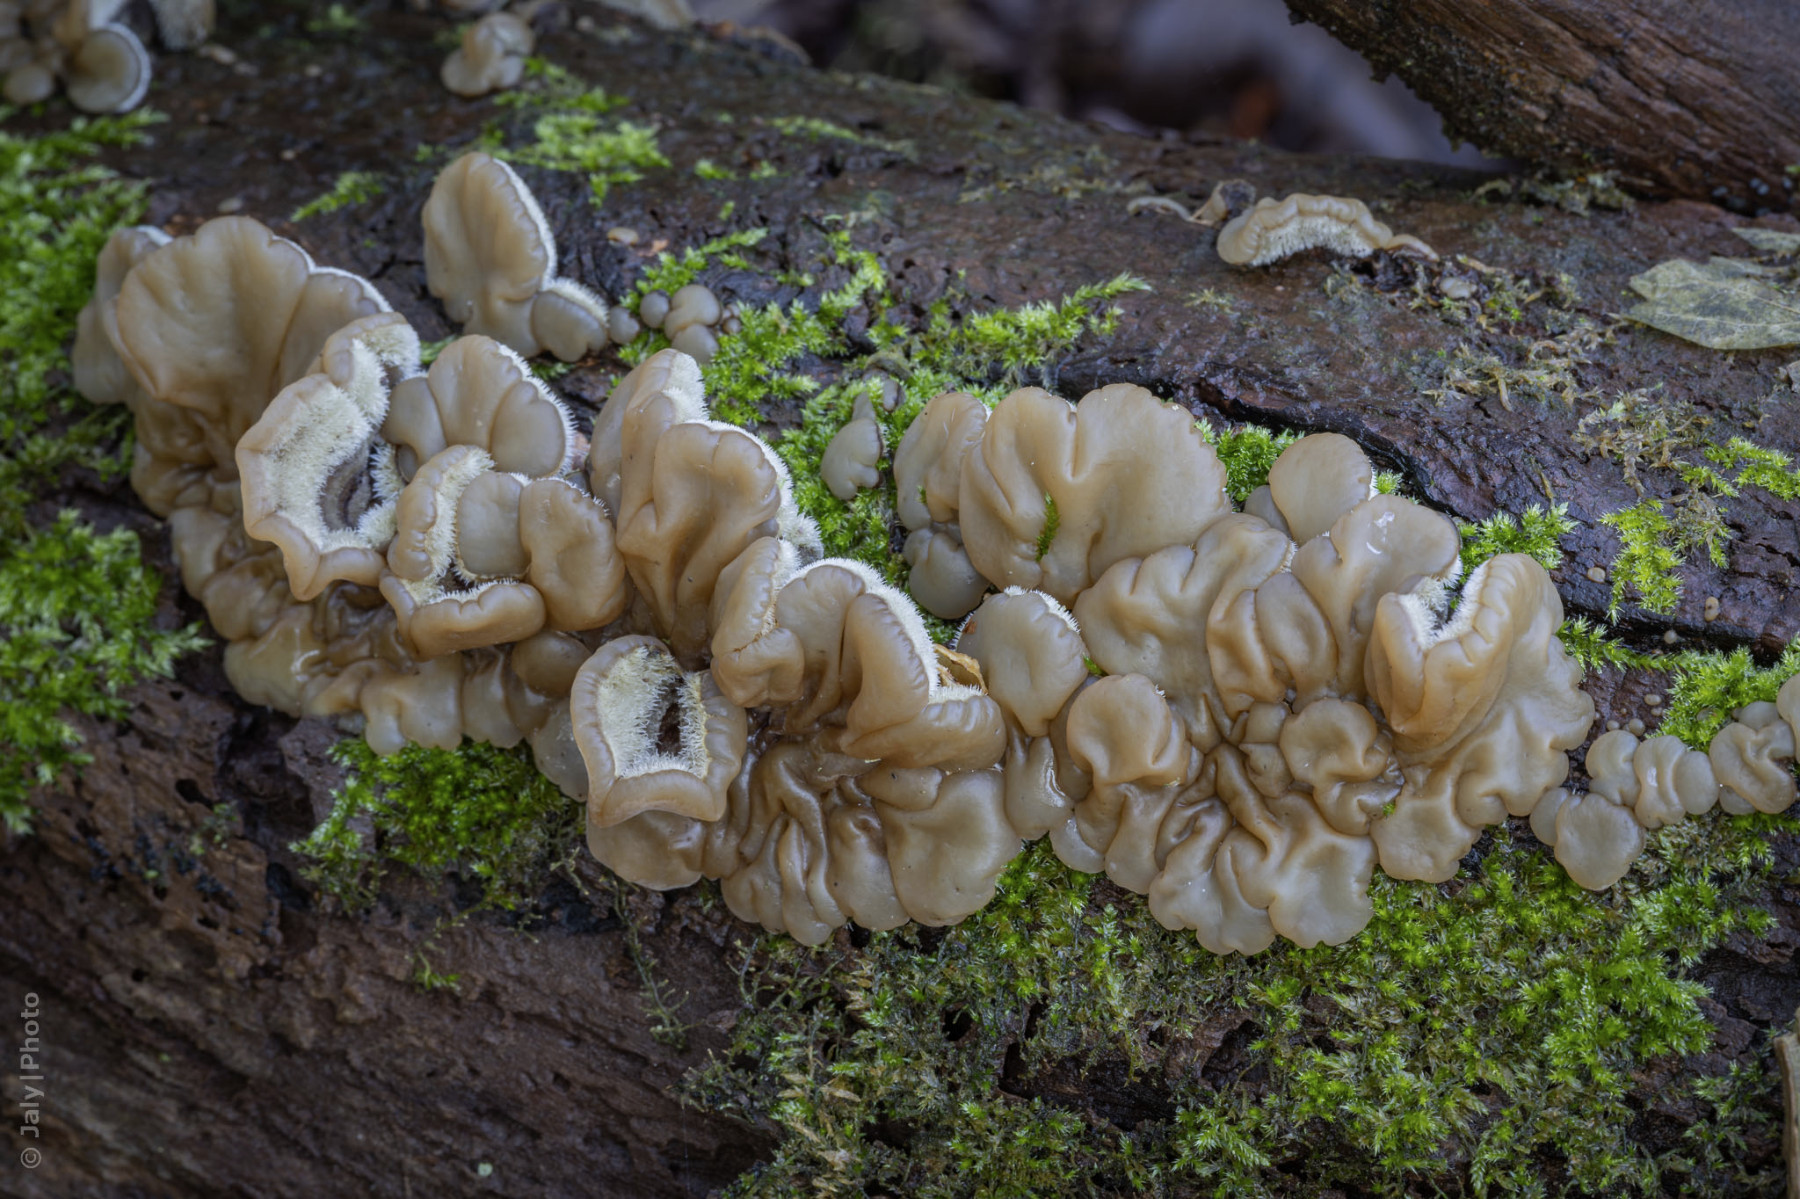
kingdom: Fungi
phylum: Basidiomycota
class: Agaricomycetes
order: Auriculariales
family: Auriculariaceae
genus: Auricularia
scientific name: Auricularia mesenterica
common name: håret judasøre
